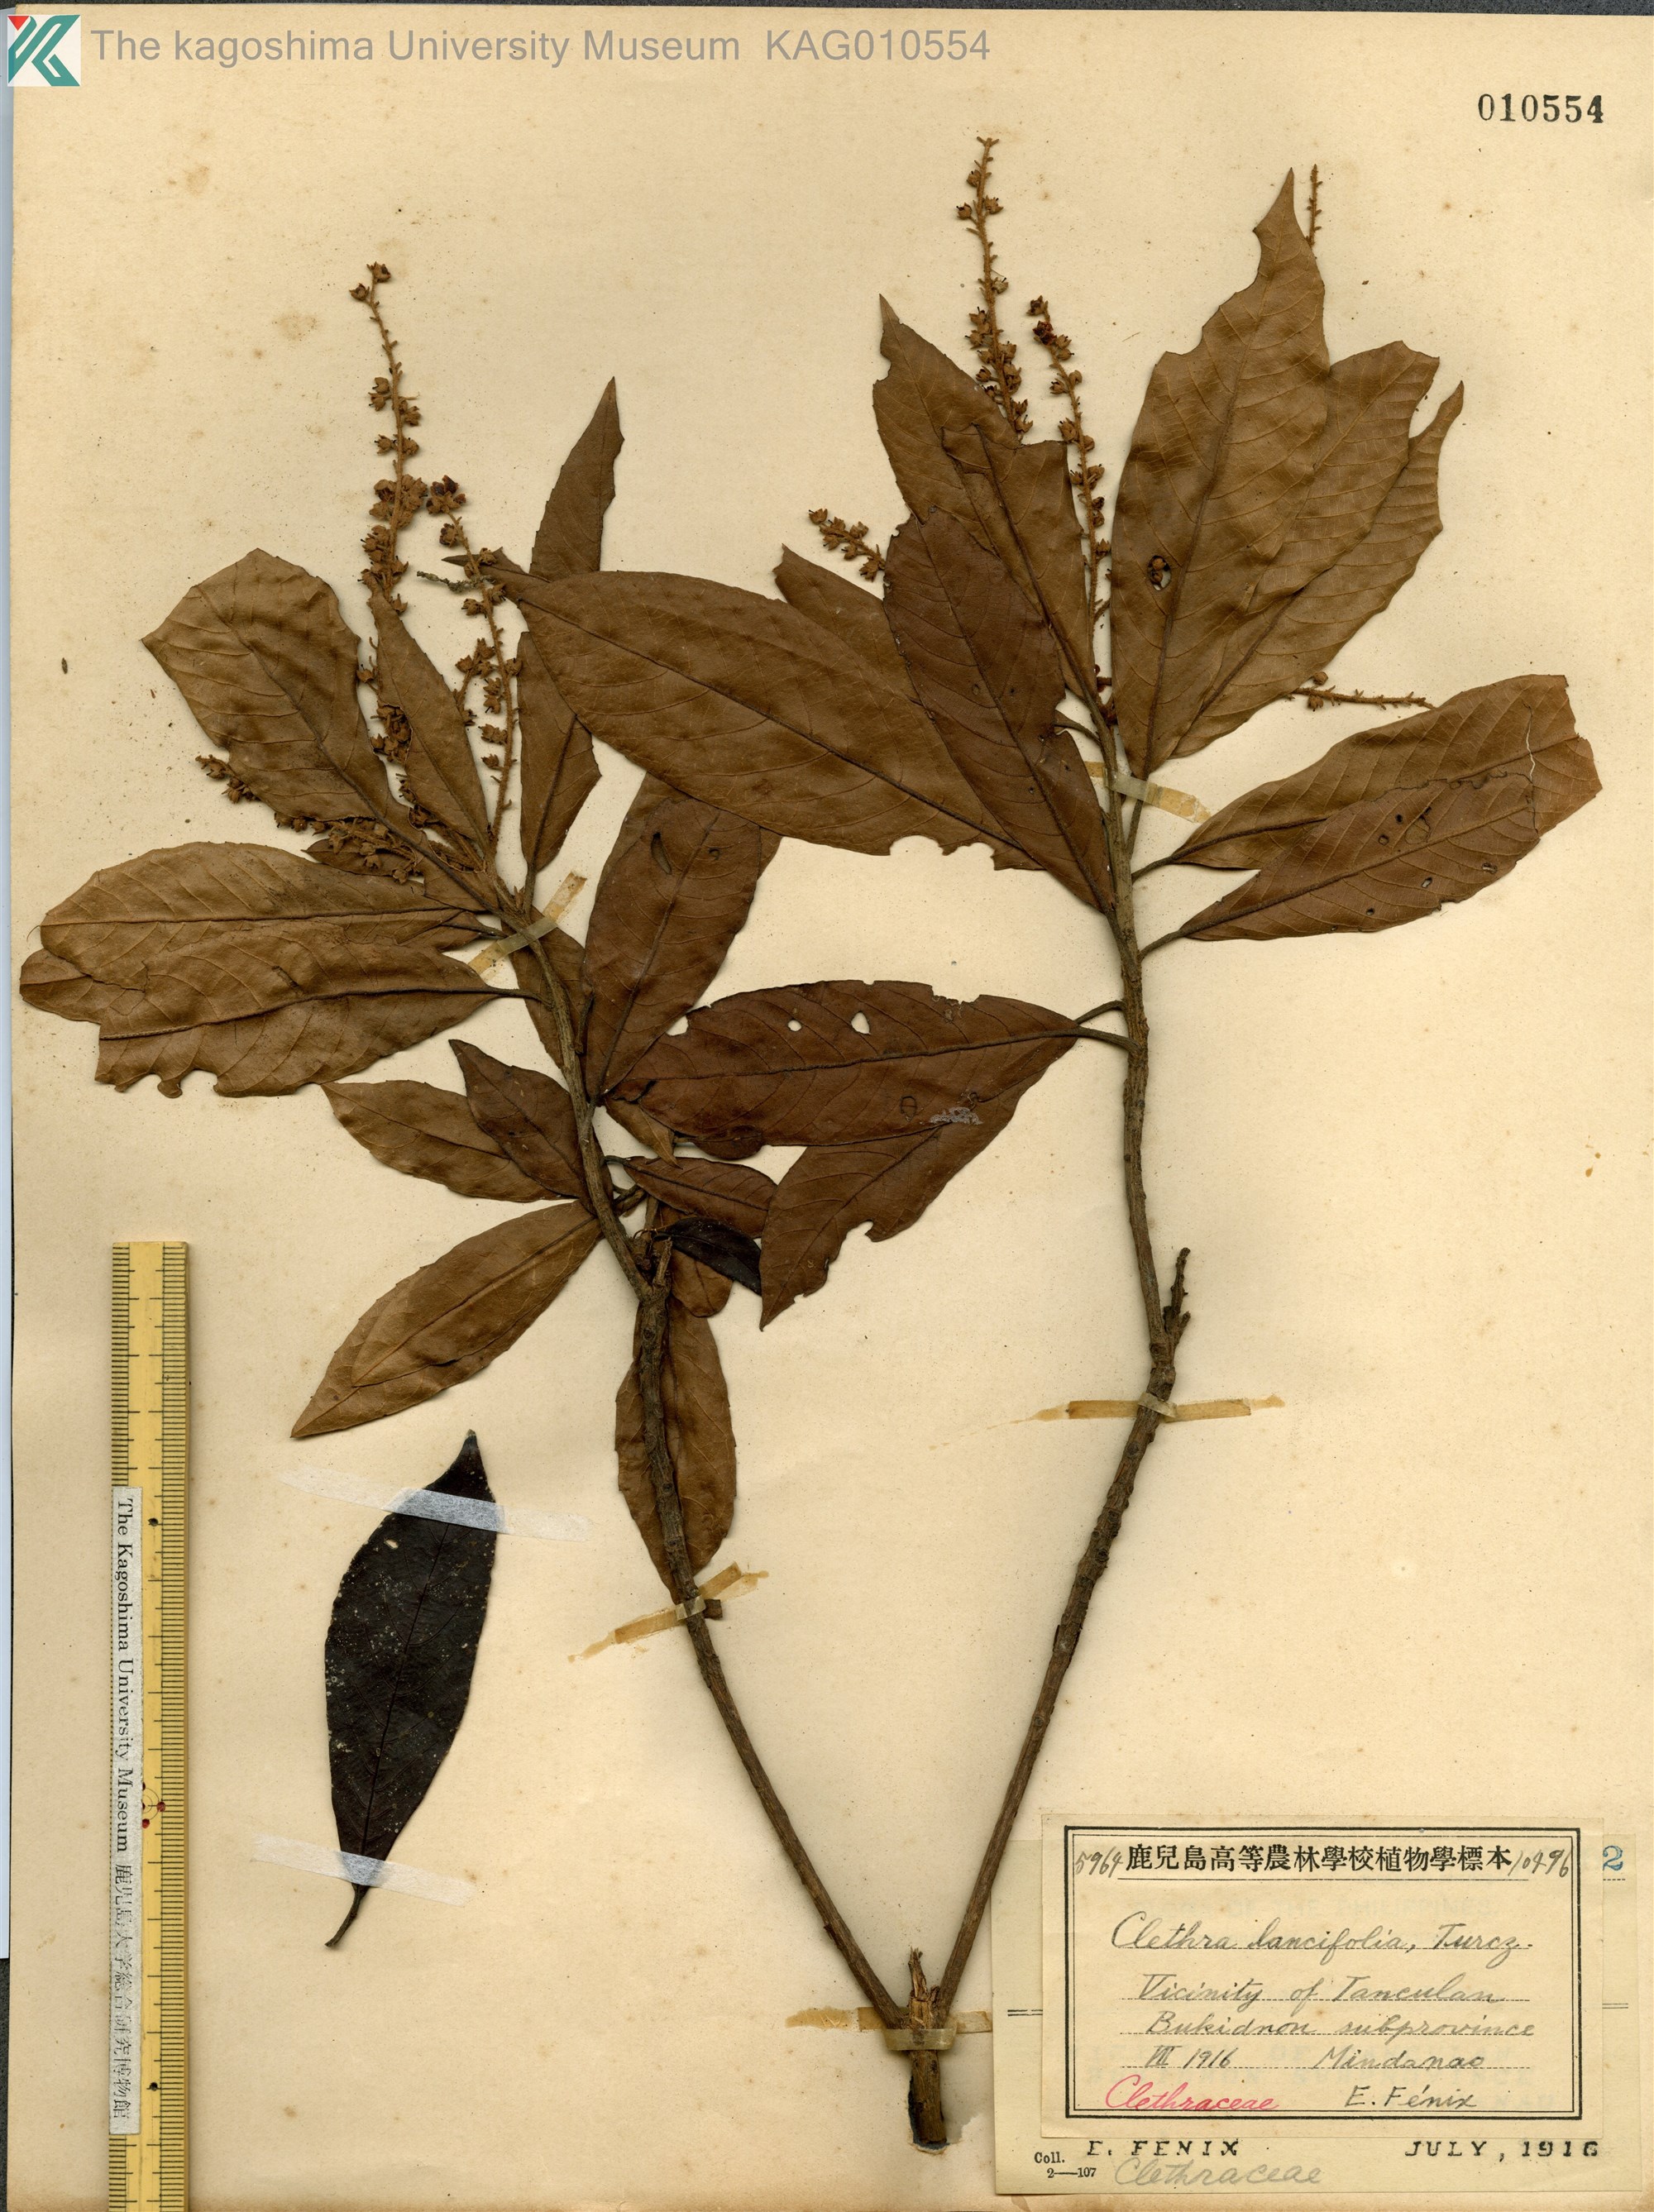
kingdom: Plantae
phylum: Tracheophyta
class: Magnoliopsida
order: Ericales
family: Clethraceae
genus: Clethra
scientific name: Clethra canescens
